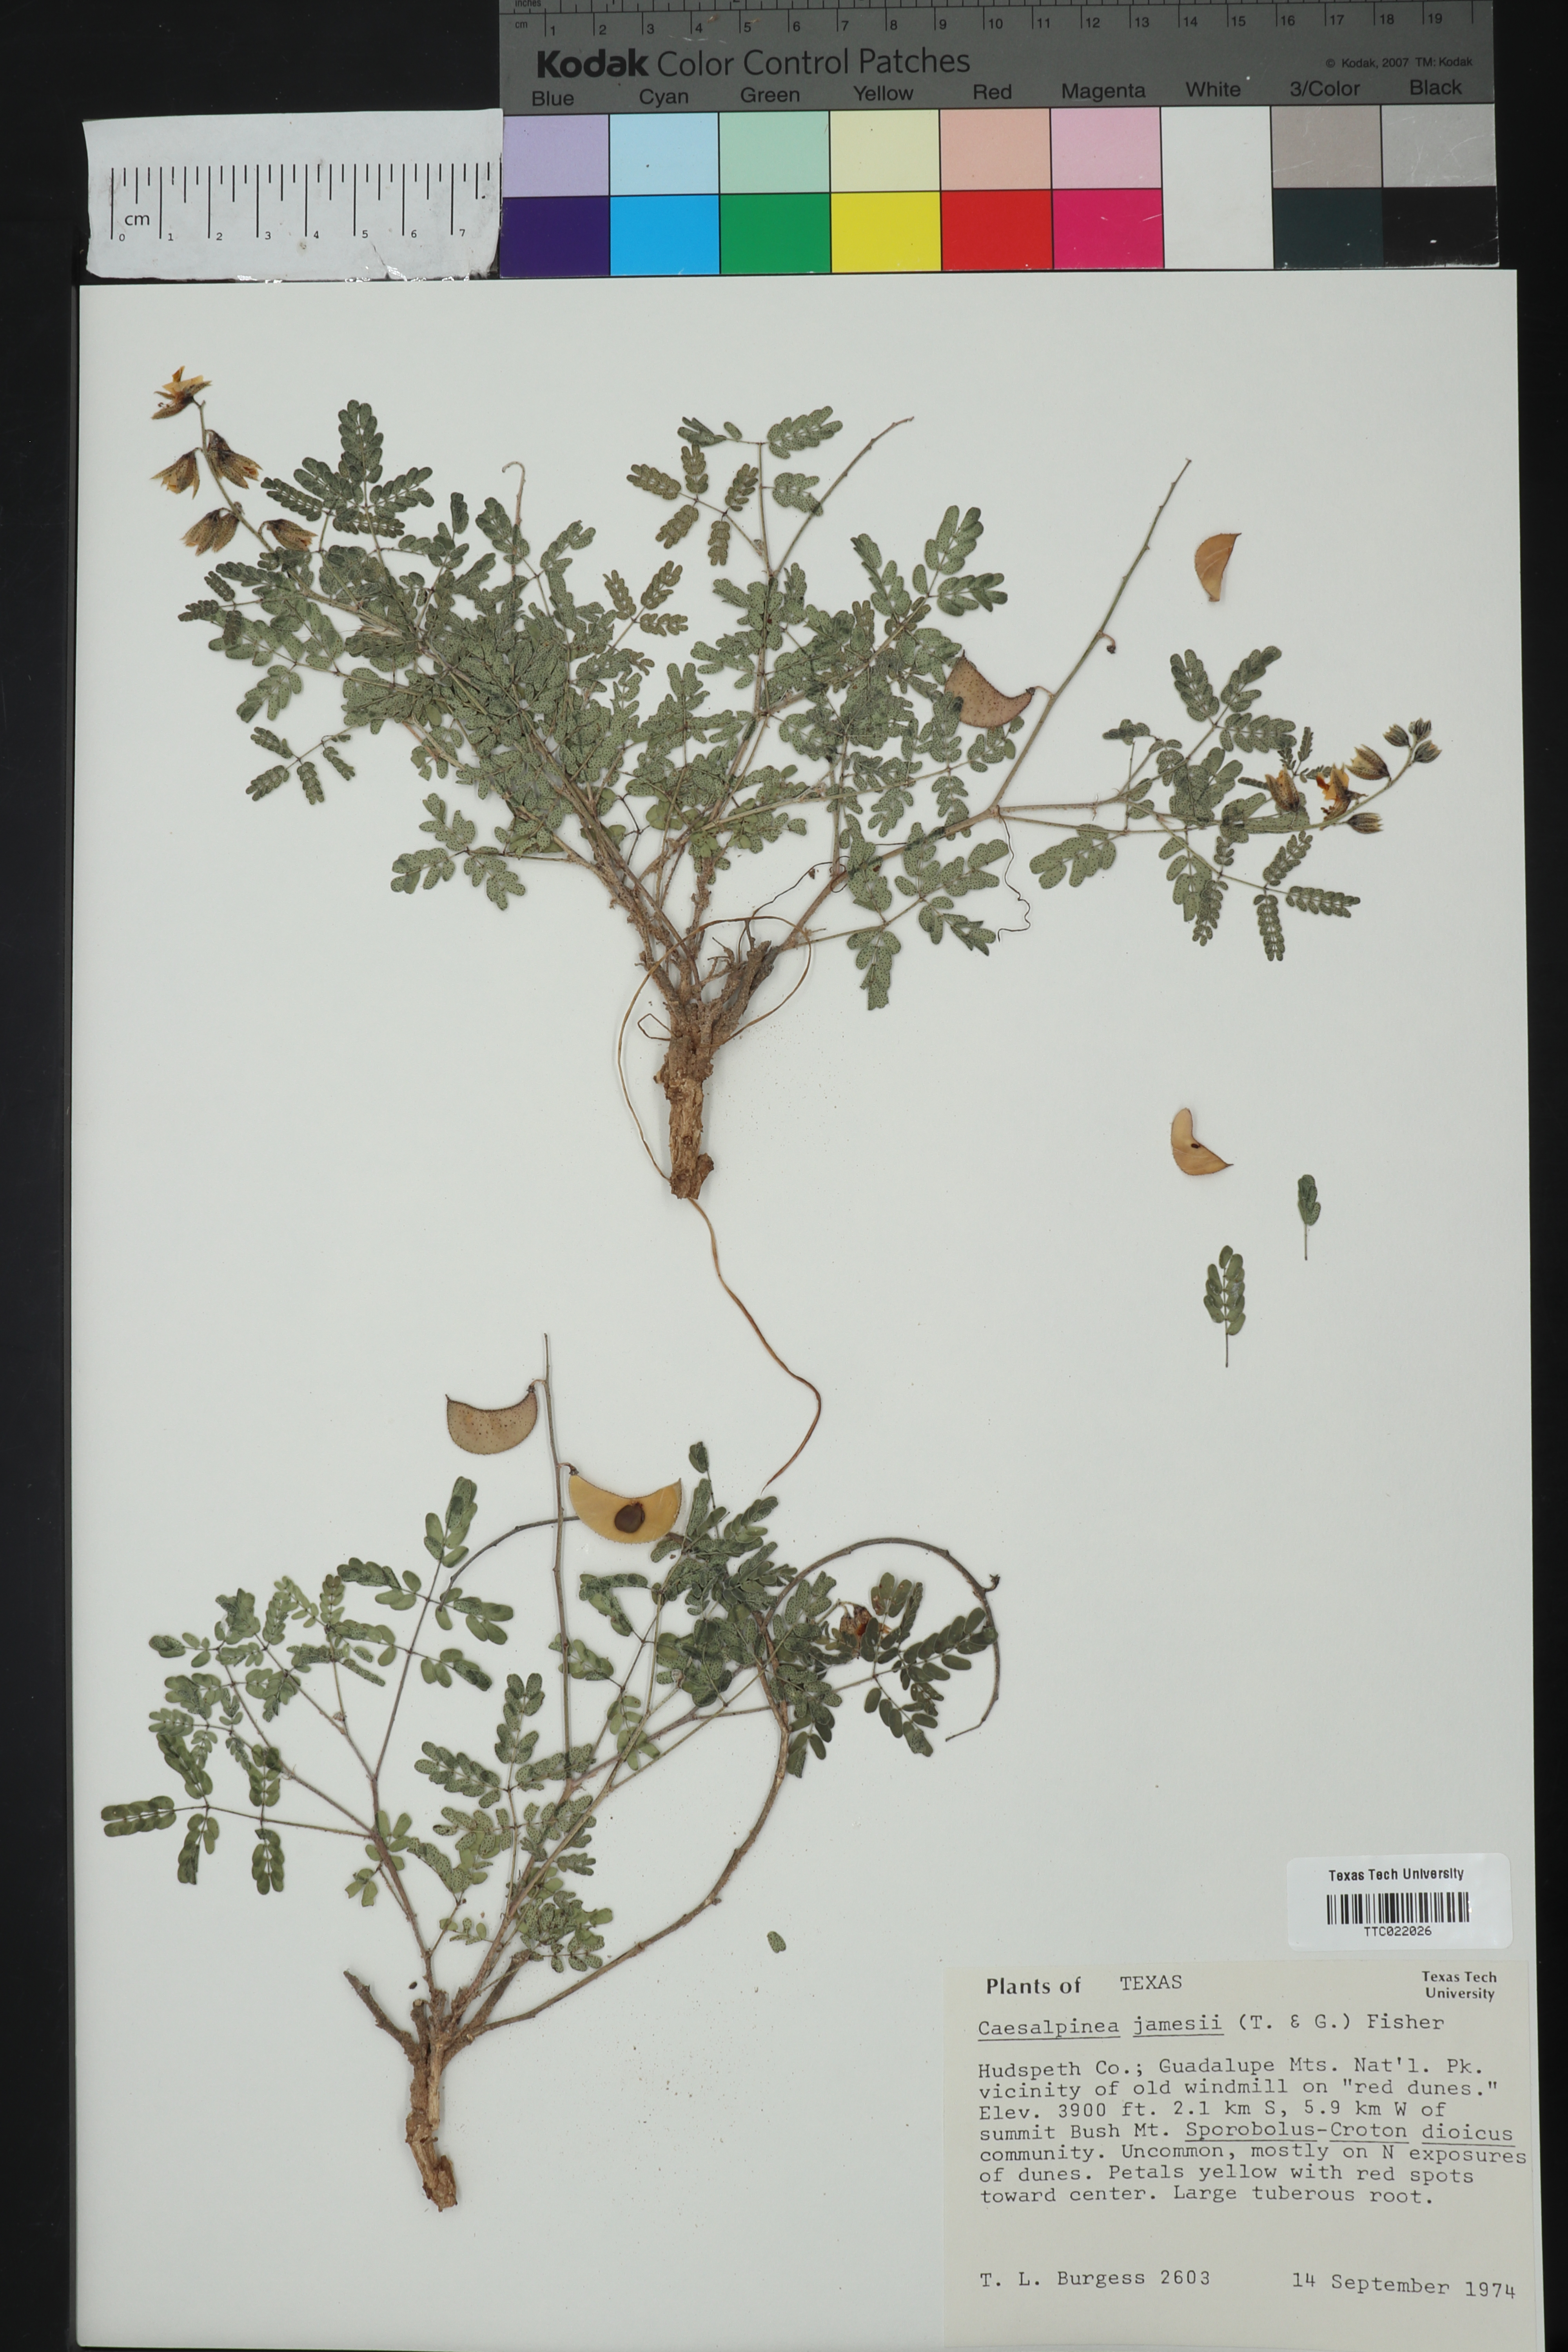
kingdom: Plantae
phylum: Tracheophyta
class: Magnoliopsida
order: Fabales
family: Fabaceae
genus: Pomaria
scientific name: Pomaria jamesii
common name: James' caesalpinia
